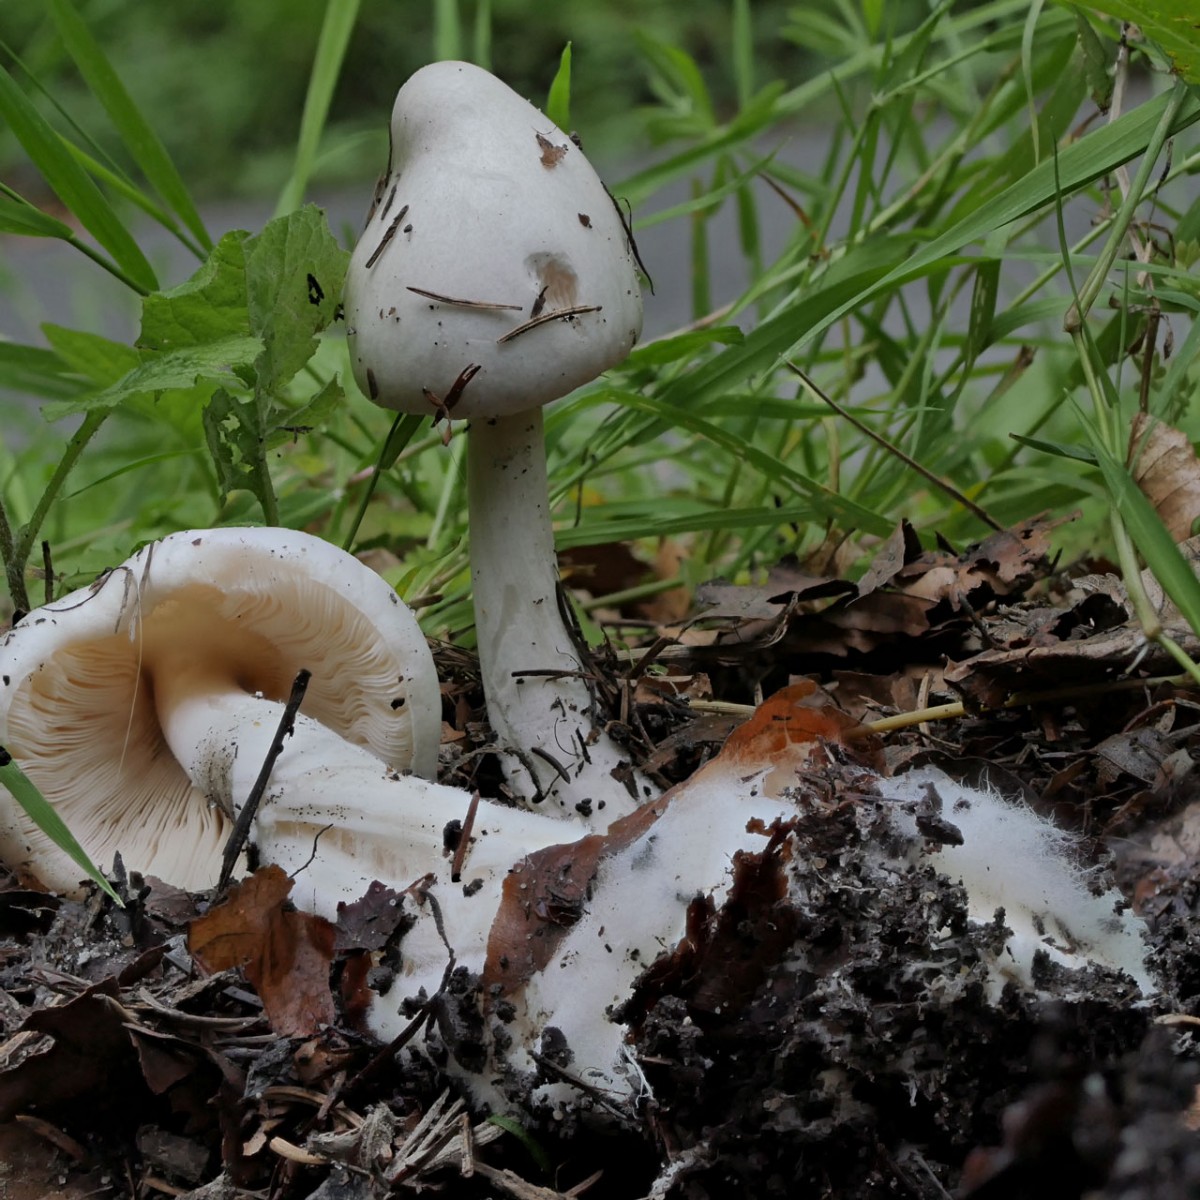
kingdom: Fungi
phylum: Basidiomycota
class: Agaricomycetes
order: Agaricales
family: Pluteaceae
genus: Volvopluteus
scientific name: Volvopluteus gloiocephalus
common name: høj posesvamp
